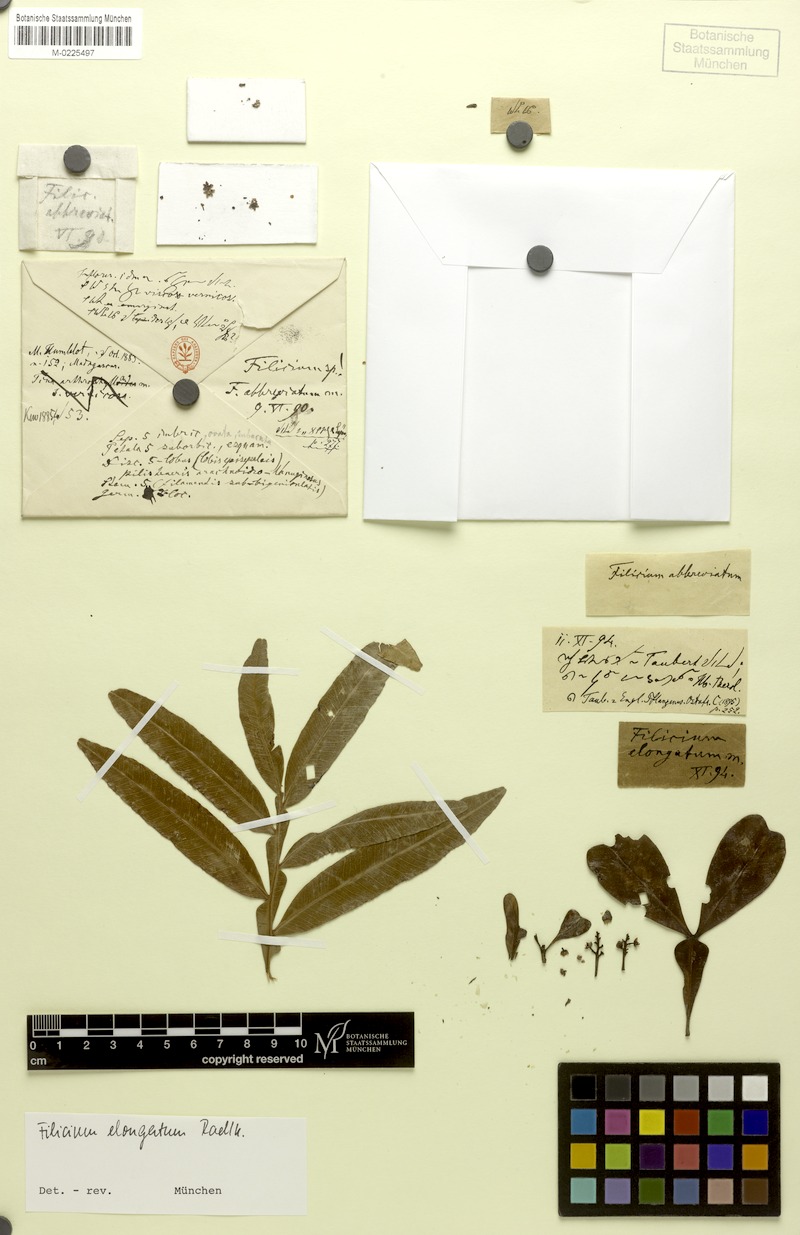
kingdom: Plantae
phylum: Tracheophyta
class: Magnoliopsida
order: Sapindales
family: Sapindaceae
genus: Filicium
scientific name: Filicium decipiens
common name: Ferntree
